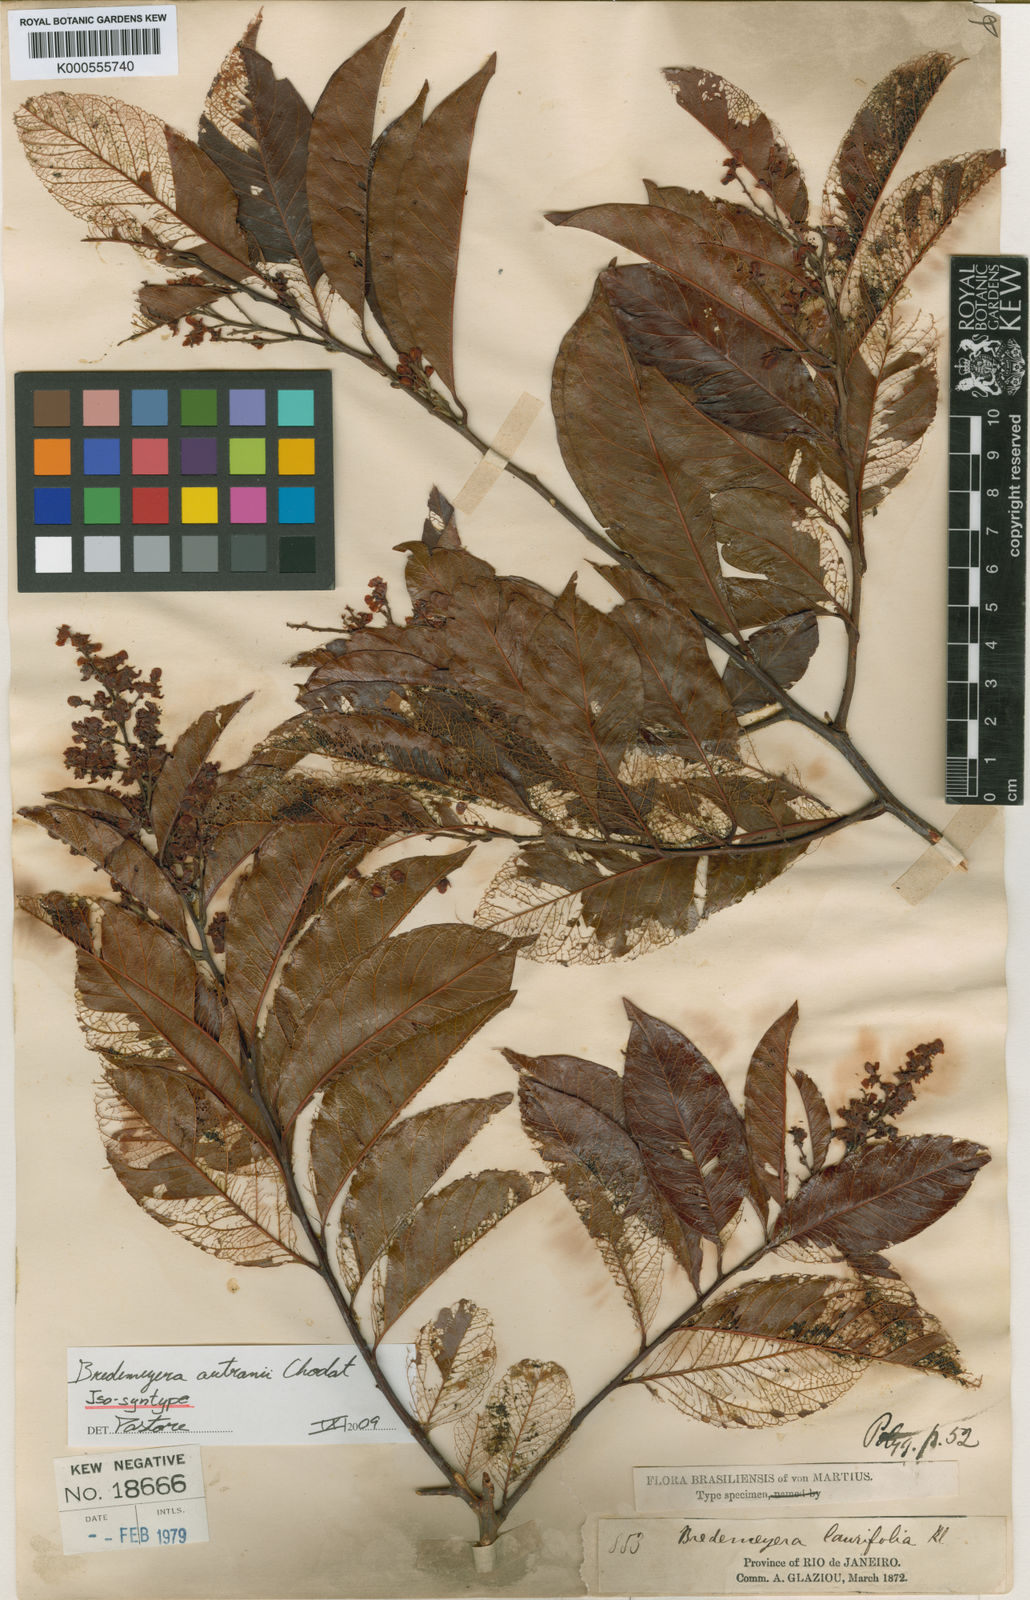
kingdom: Plantae
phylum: Tracheophyta
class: Magnoliopsida
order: Fabales
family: Polygalaceae
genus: Bredemeyera
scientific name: Bredemeyera disperma
